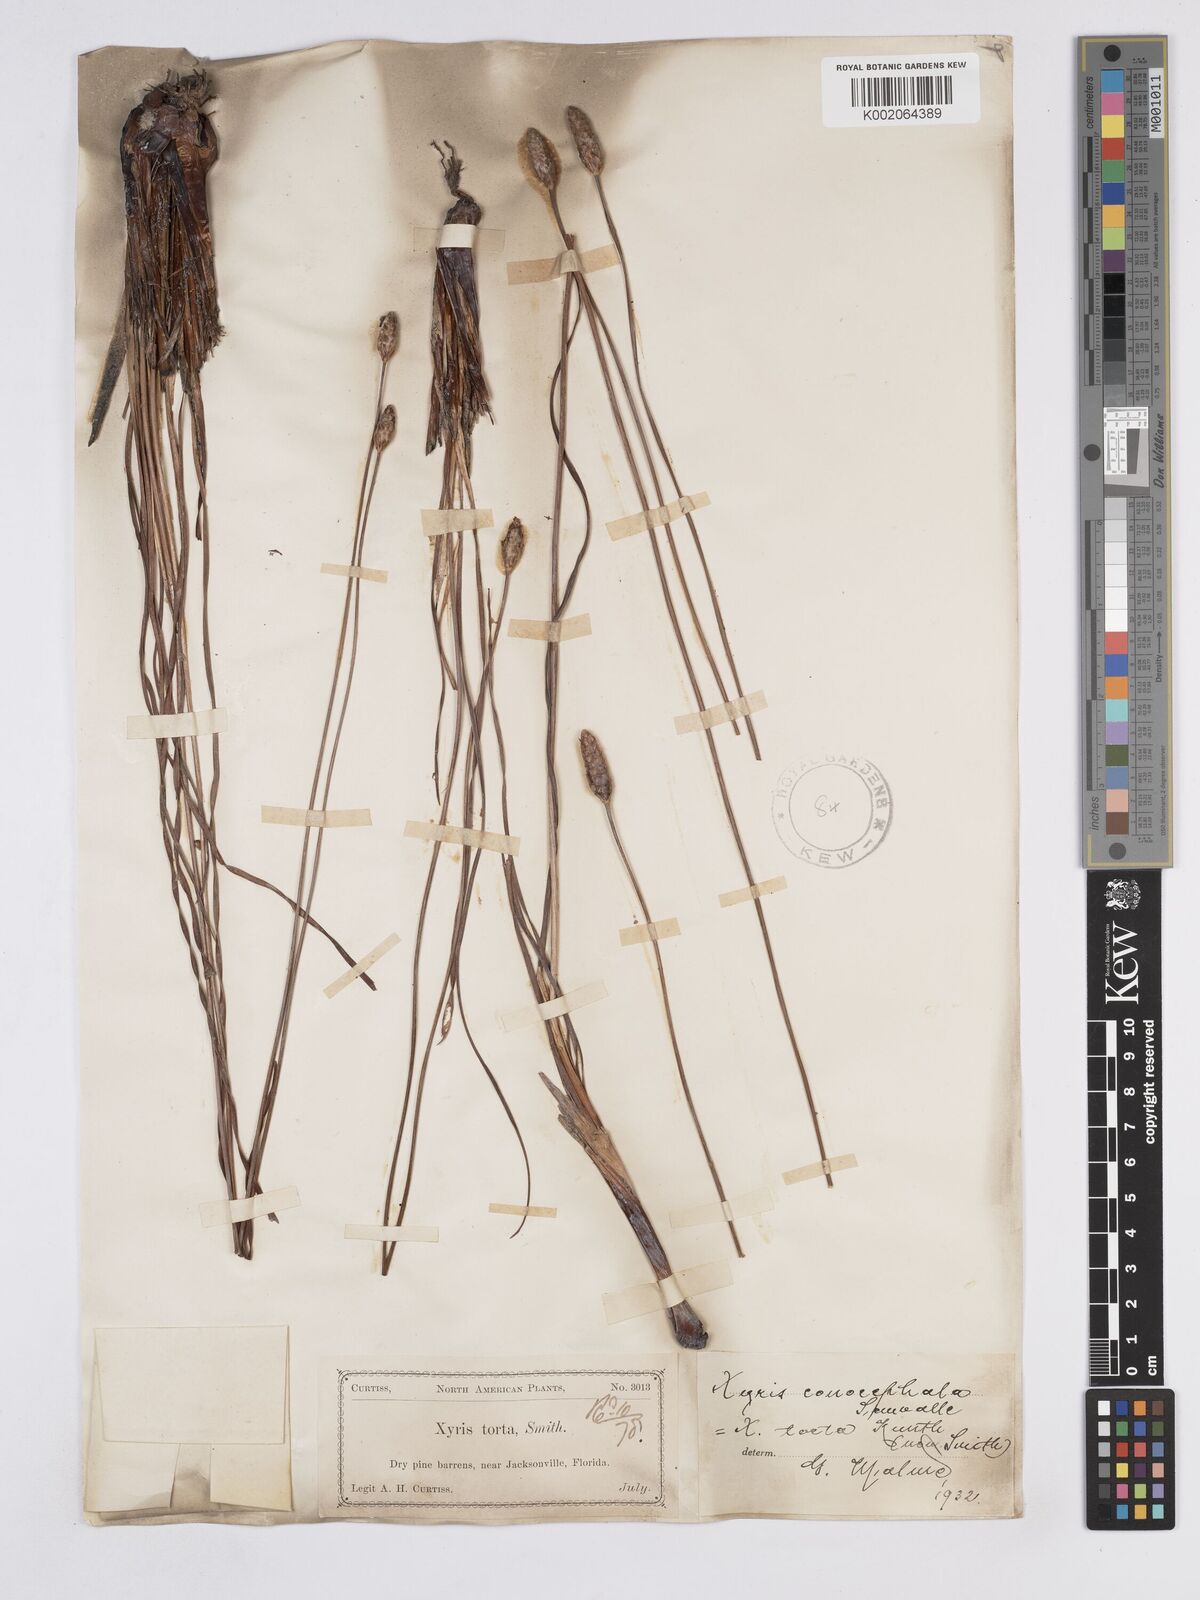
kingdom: Plantae
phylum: Tracheophyta
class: Liliopsida
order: Poales
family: Xyridaceae
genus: Xyris
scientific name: Xyris caroliniana
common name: Carolina yellow-eyed-grass
